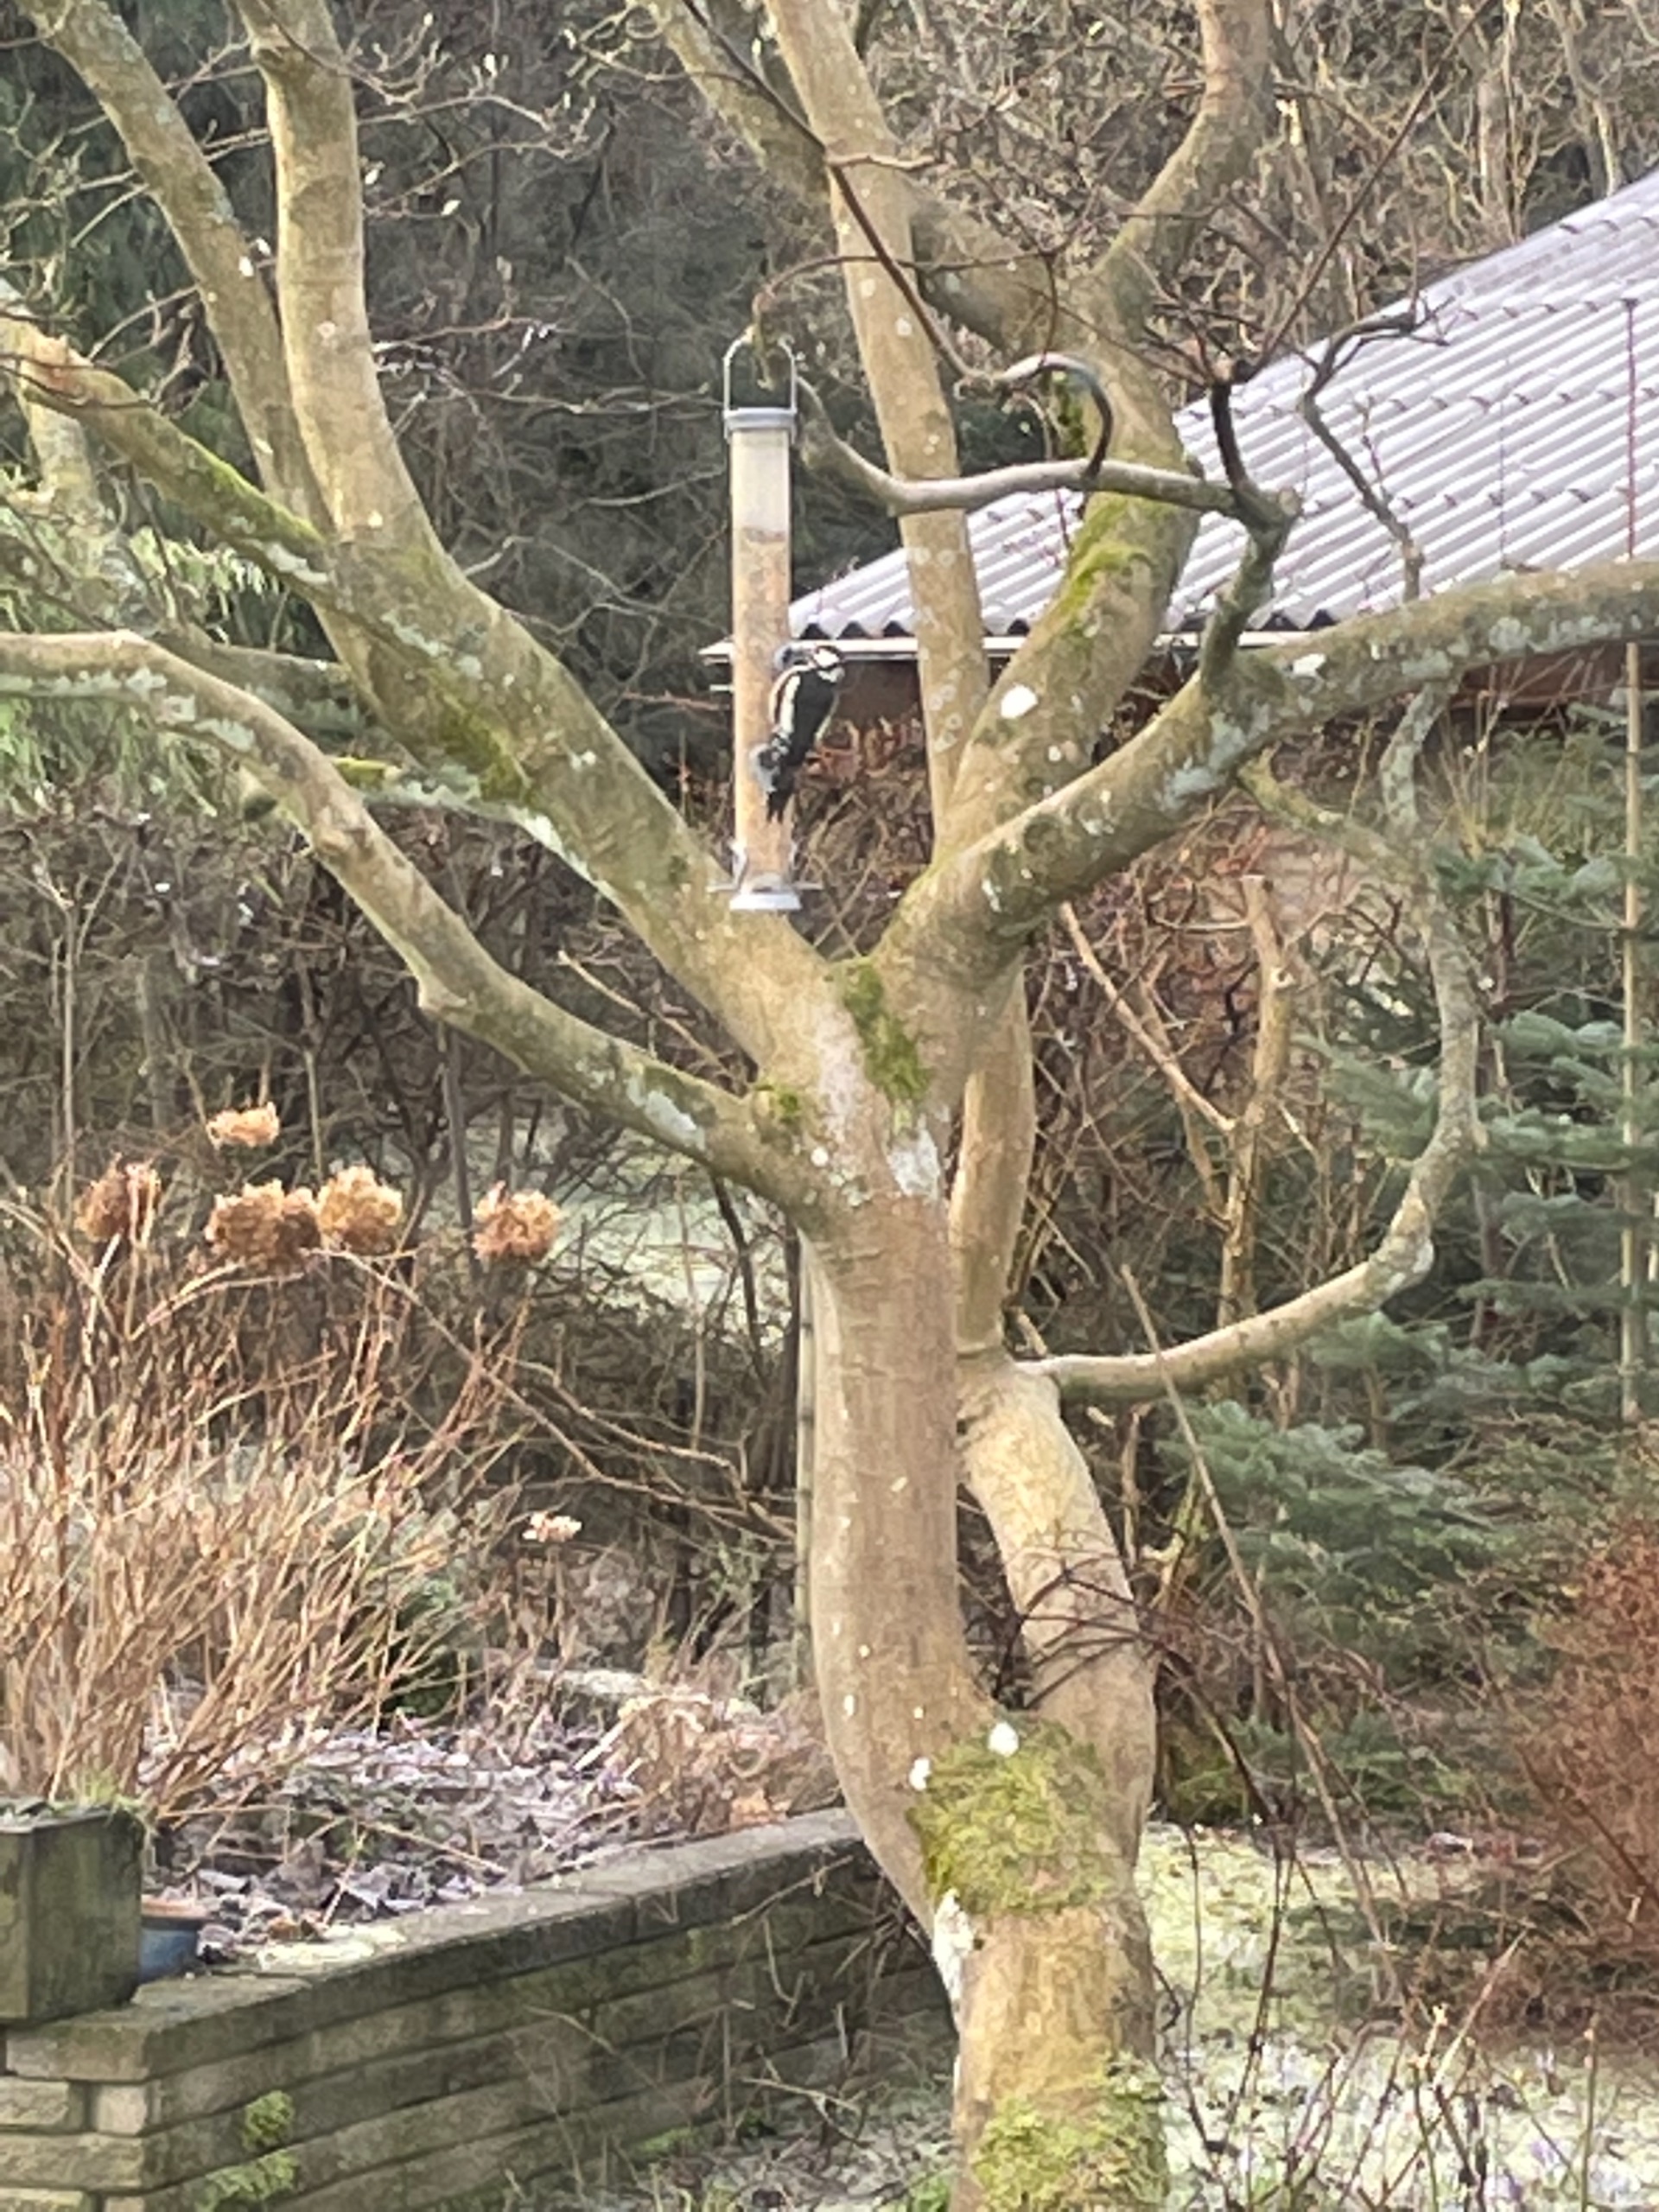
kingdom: Animalia
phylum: Chordata
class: Aves
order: Piciformes
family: Picidae
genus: Dendrocopos
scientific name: Dendrocopos major
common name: Stor flagspætte
